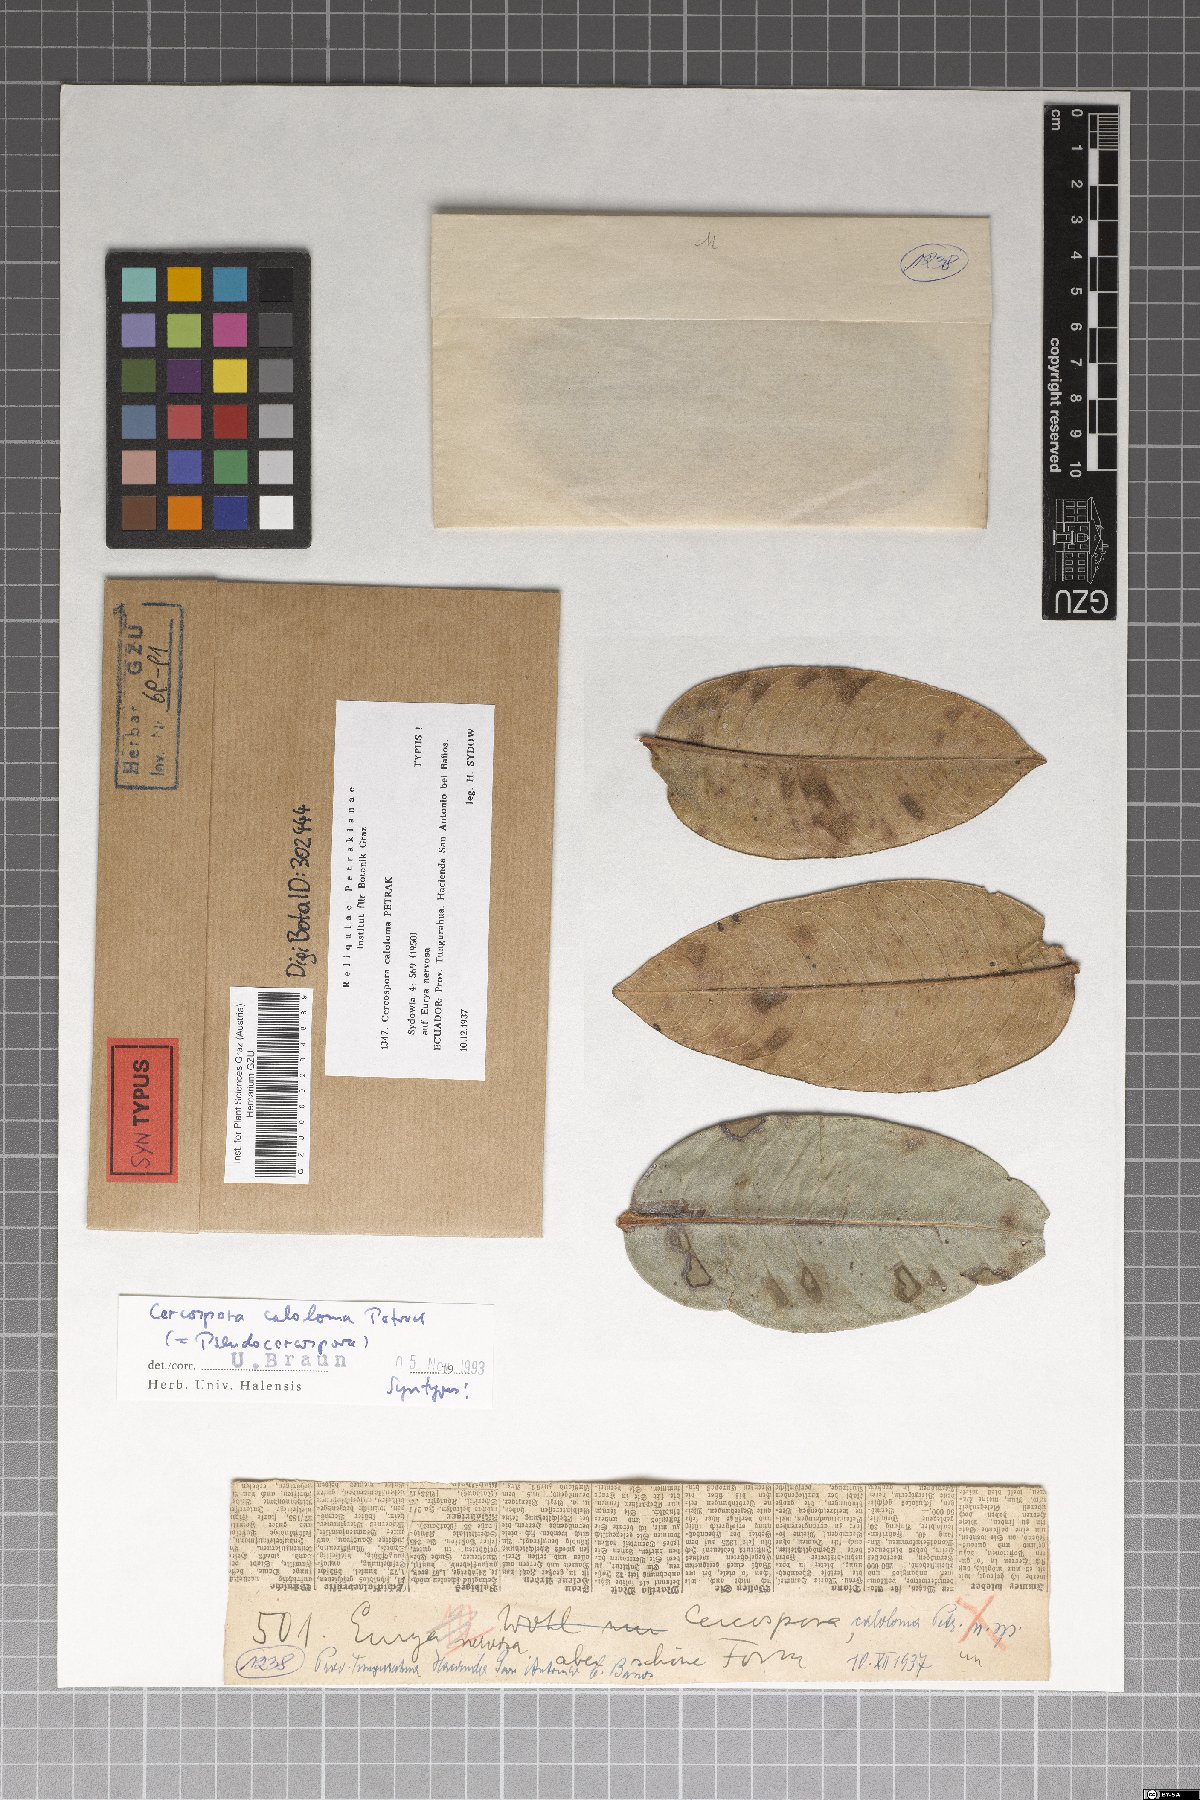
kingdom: Fungi
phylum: Ascomycota
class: Dothideomycetes
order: Mycosphaerellales
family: Mycosphaerellaceae
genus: Pseudocercospora
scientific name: Pseudocercospora caloloma
